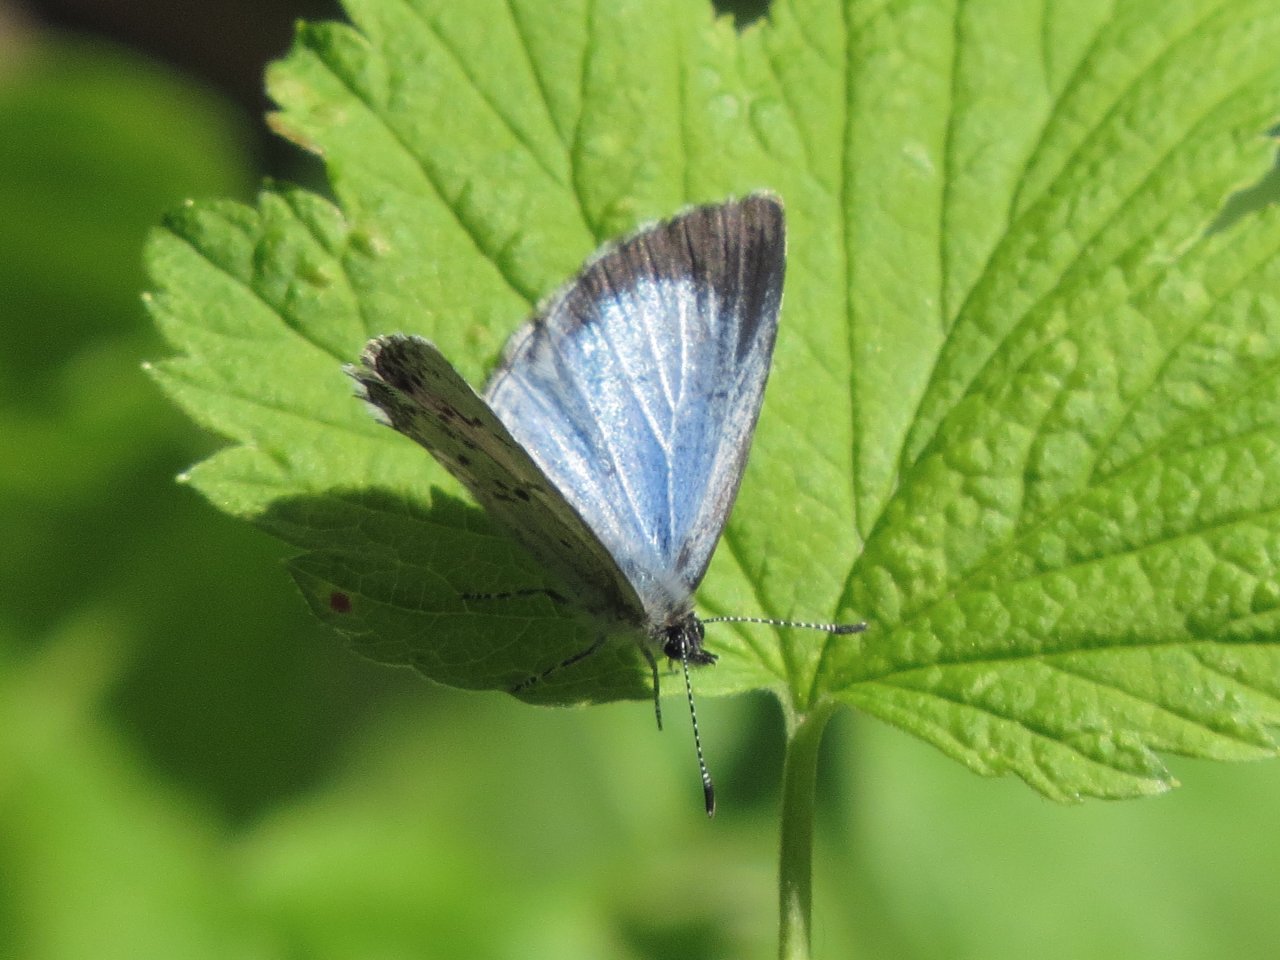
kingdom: Animalia
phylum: Arthropoda
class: Insecta
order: Lepidoptera
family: Lycaenidae
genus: Celastrina
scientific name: Celastrina lucia
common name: Northern Spring Azure
